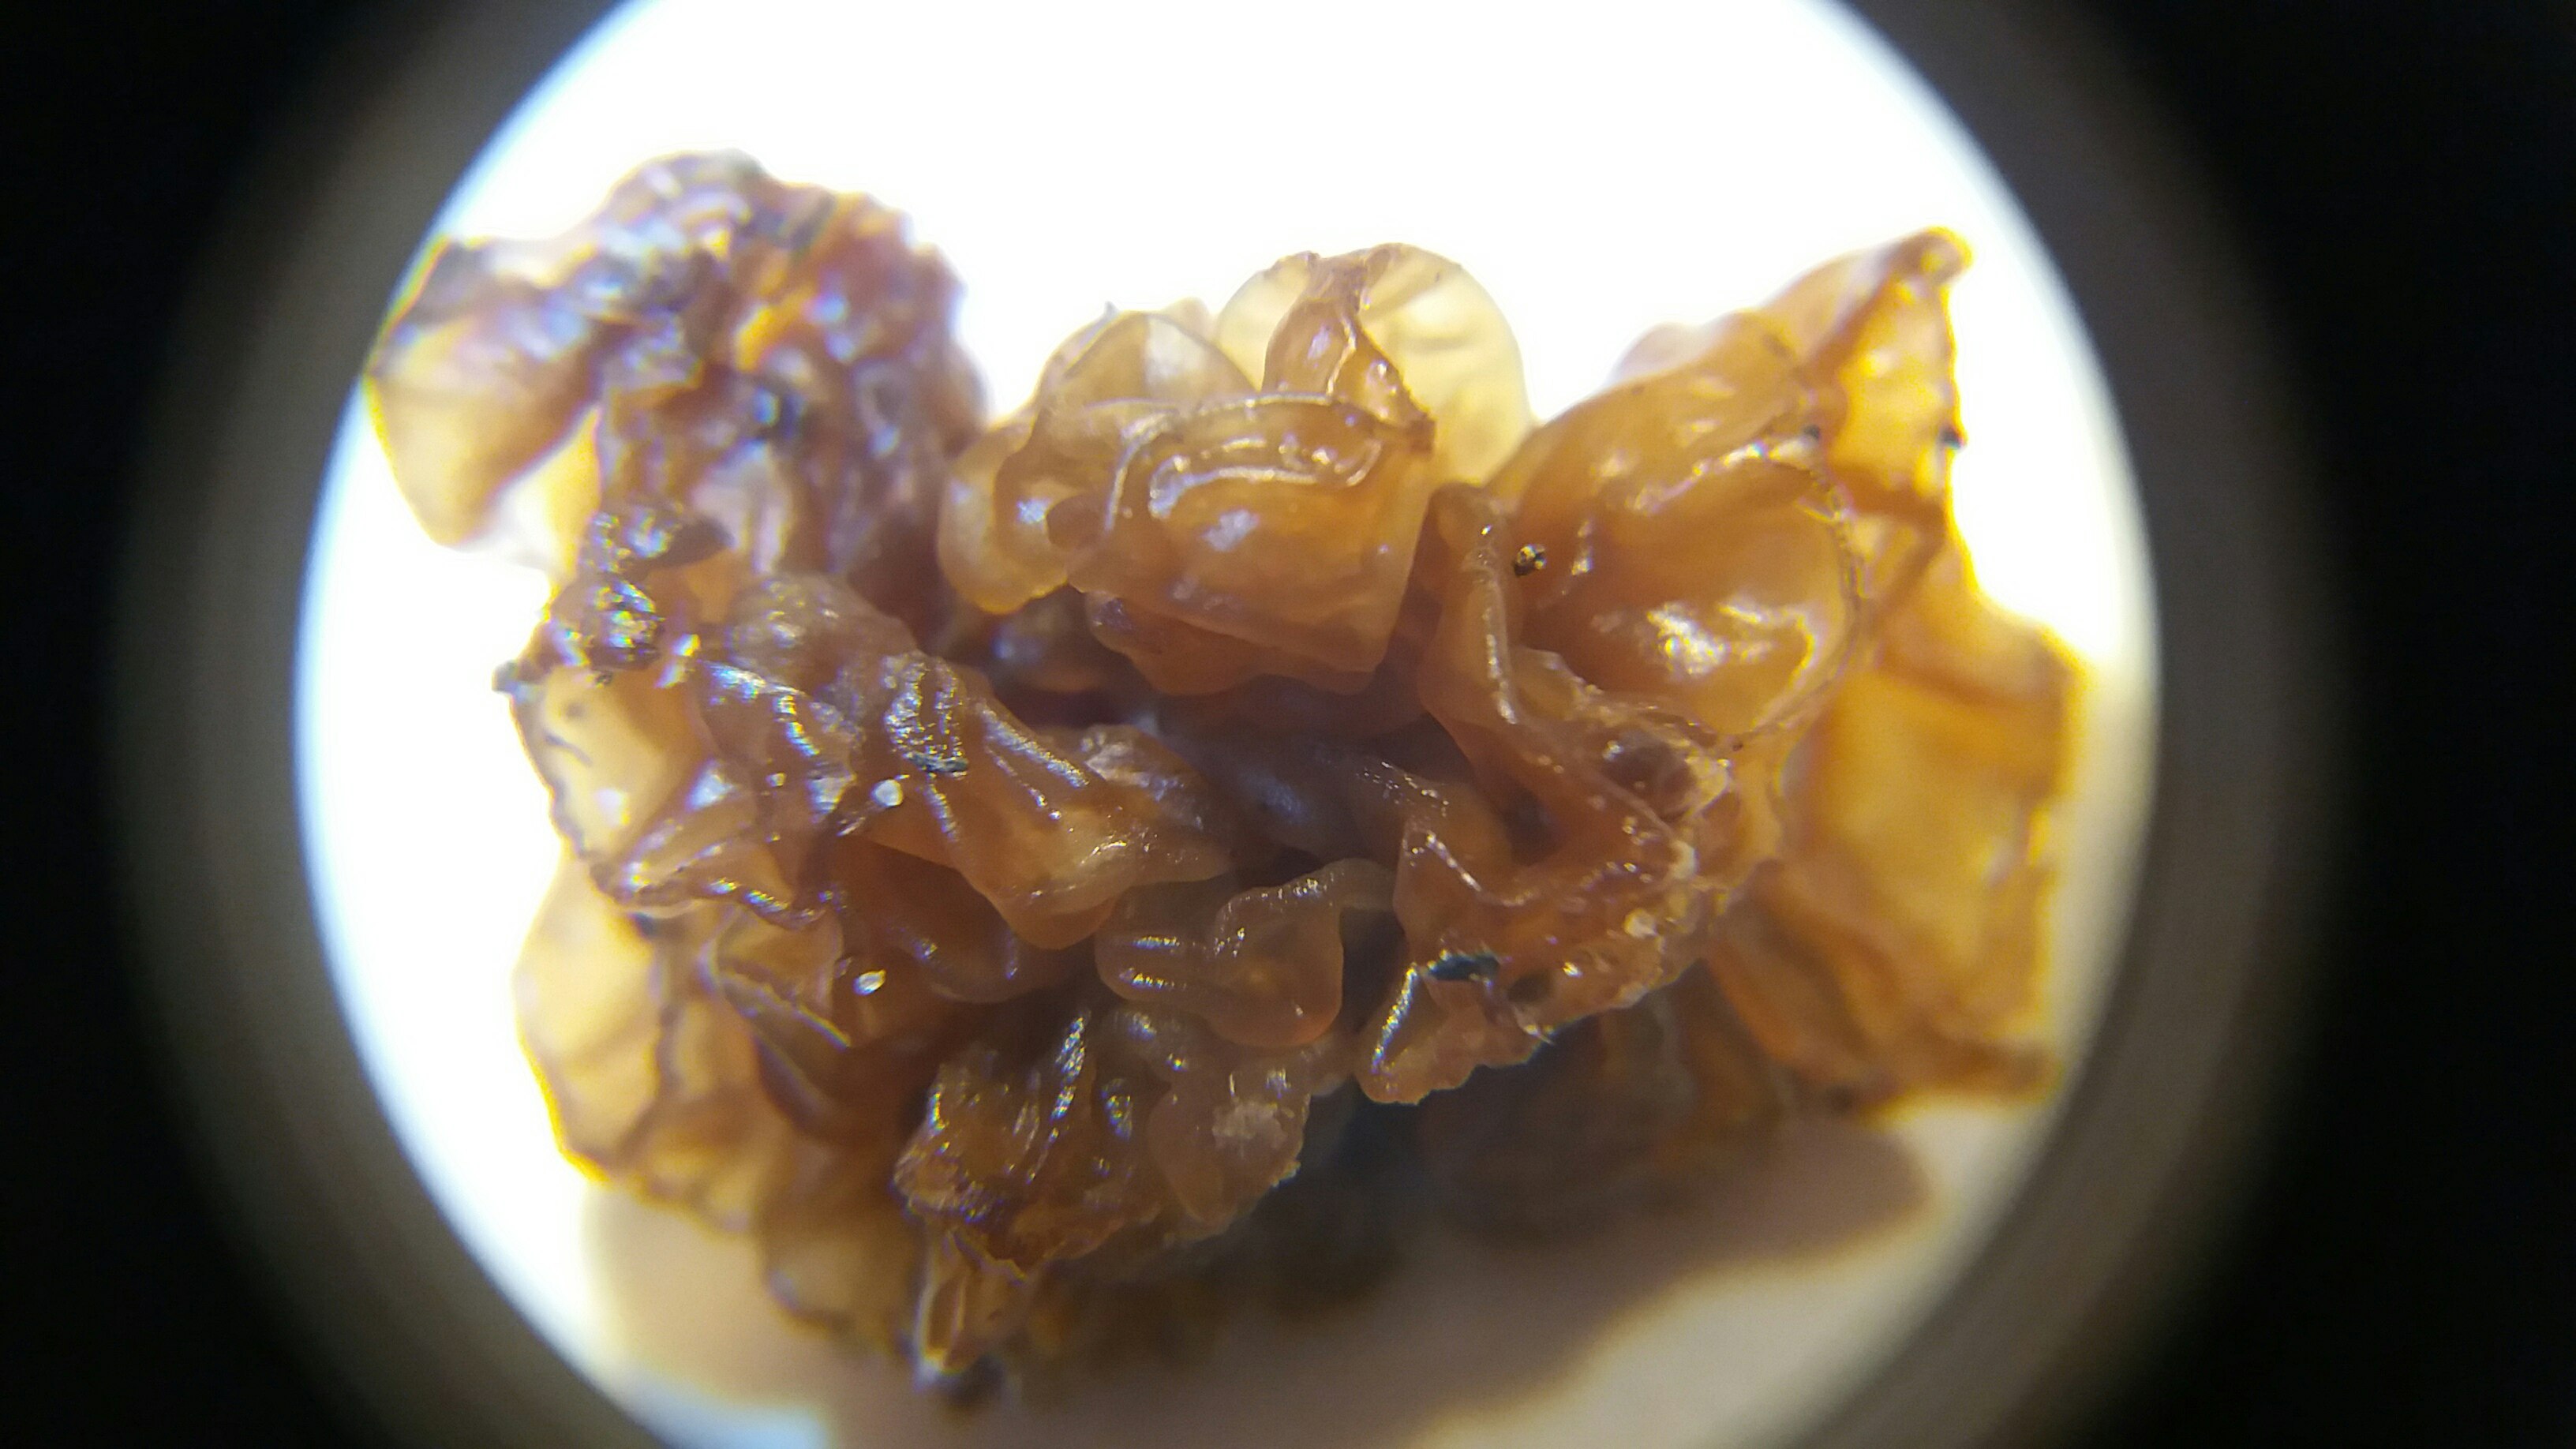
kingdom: Fungi
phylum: Basidiomycota
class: Tremellomycetes
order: Tremellales
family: Tremellaceae
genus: Phaeotremella
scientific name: Phaeotremella frondosa
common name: kæmpe-bævresvamp
